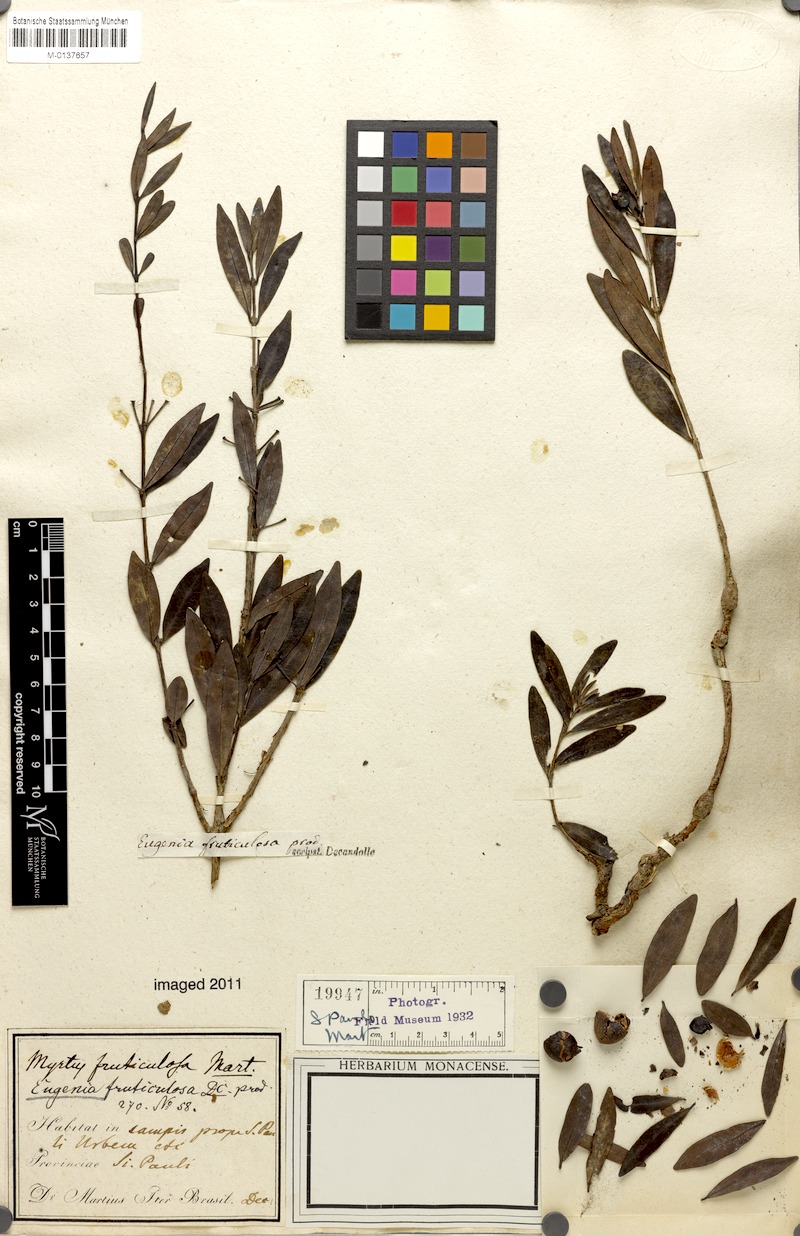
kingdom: Plantae
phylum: Tracheophyta
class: Magnoliopsida
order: Myrtales
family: Myrtaceae
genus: Eugenia
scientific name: Eugenia punicifolia
